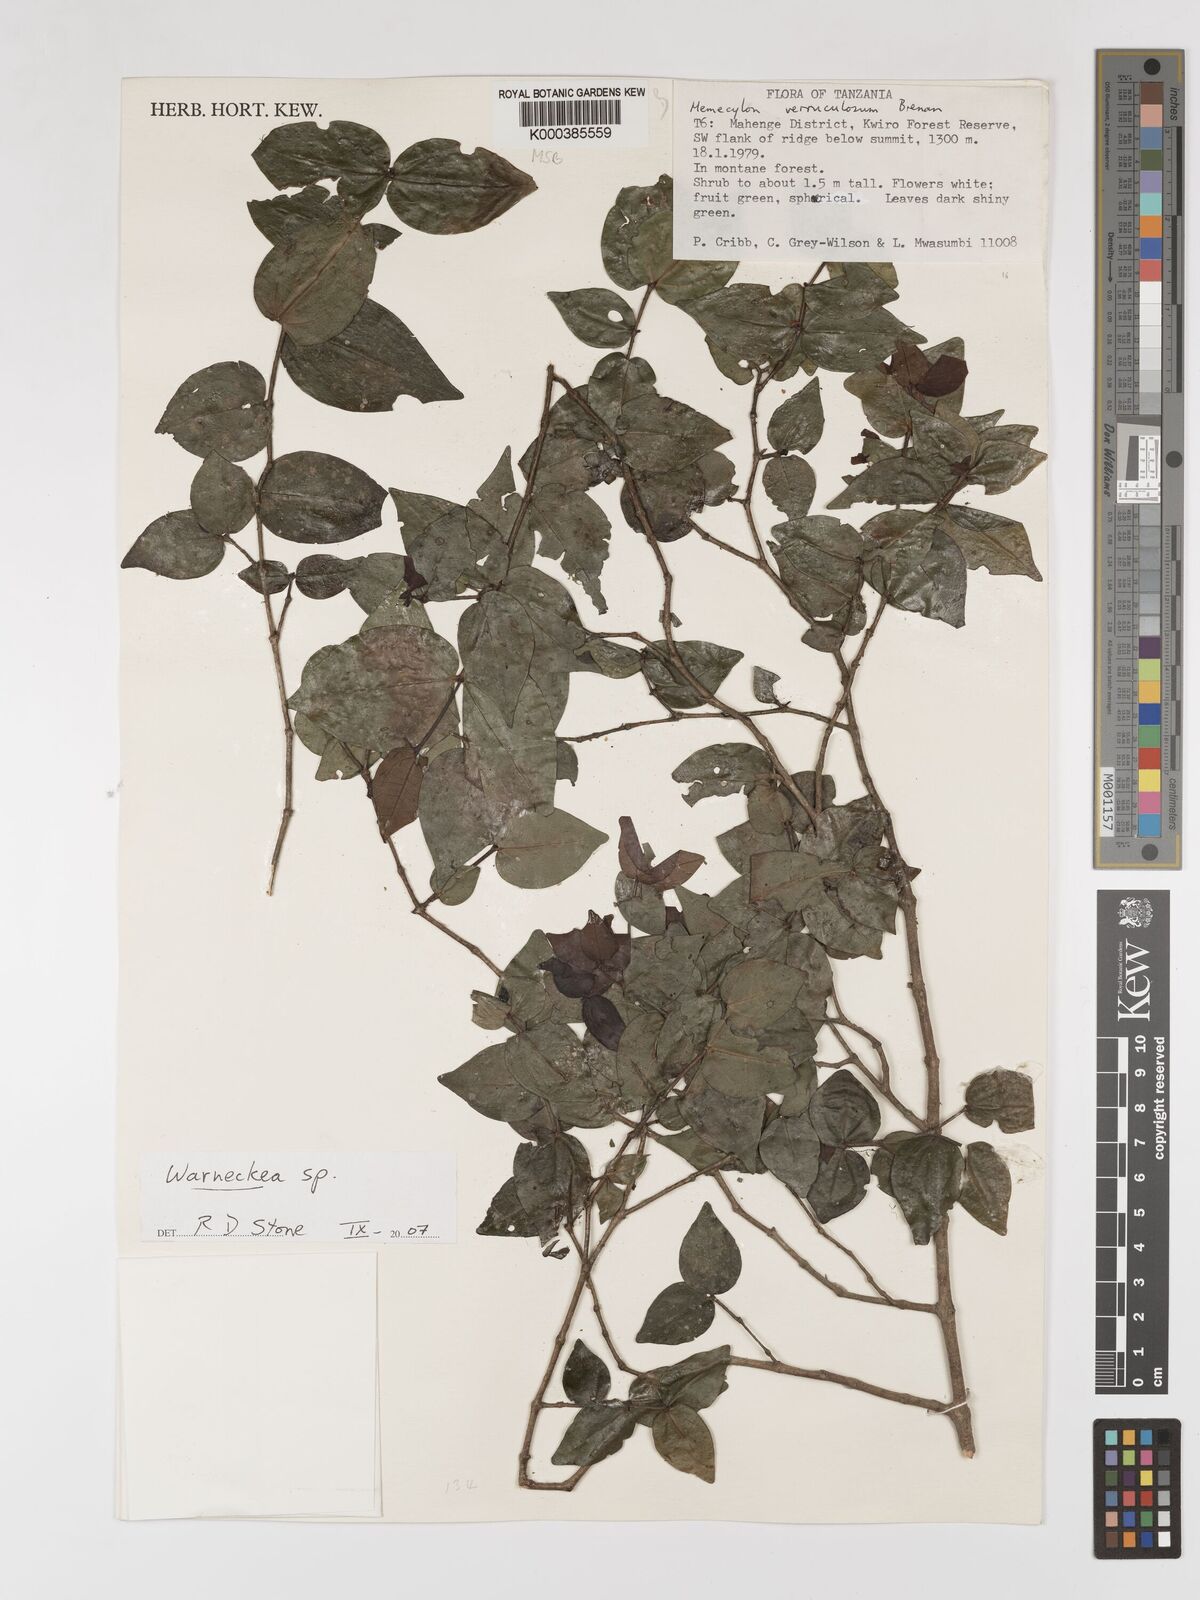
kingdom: Plantae
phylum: Tracheophyta
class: Magnoliopsida
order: Myrtales
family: Melastomataceae
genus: Memecylon
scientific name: Memecylon verruculosum
